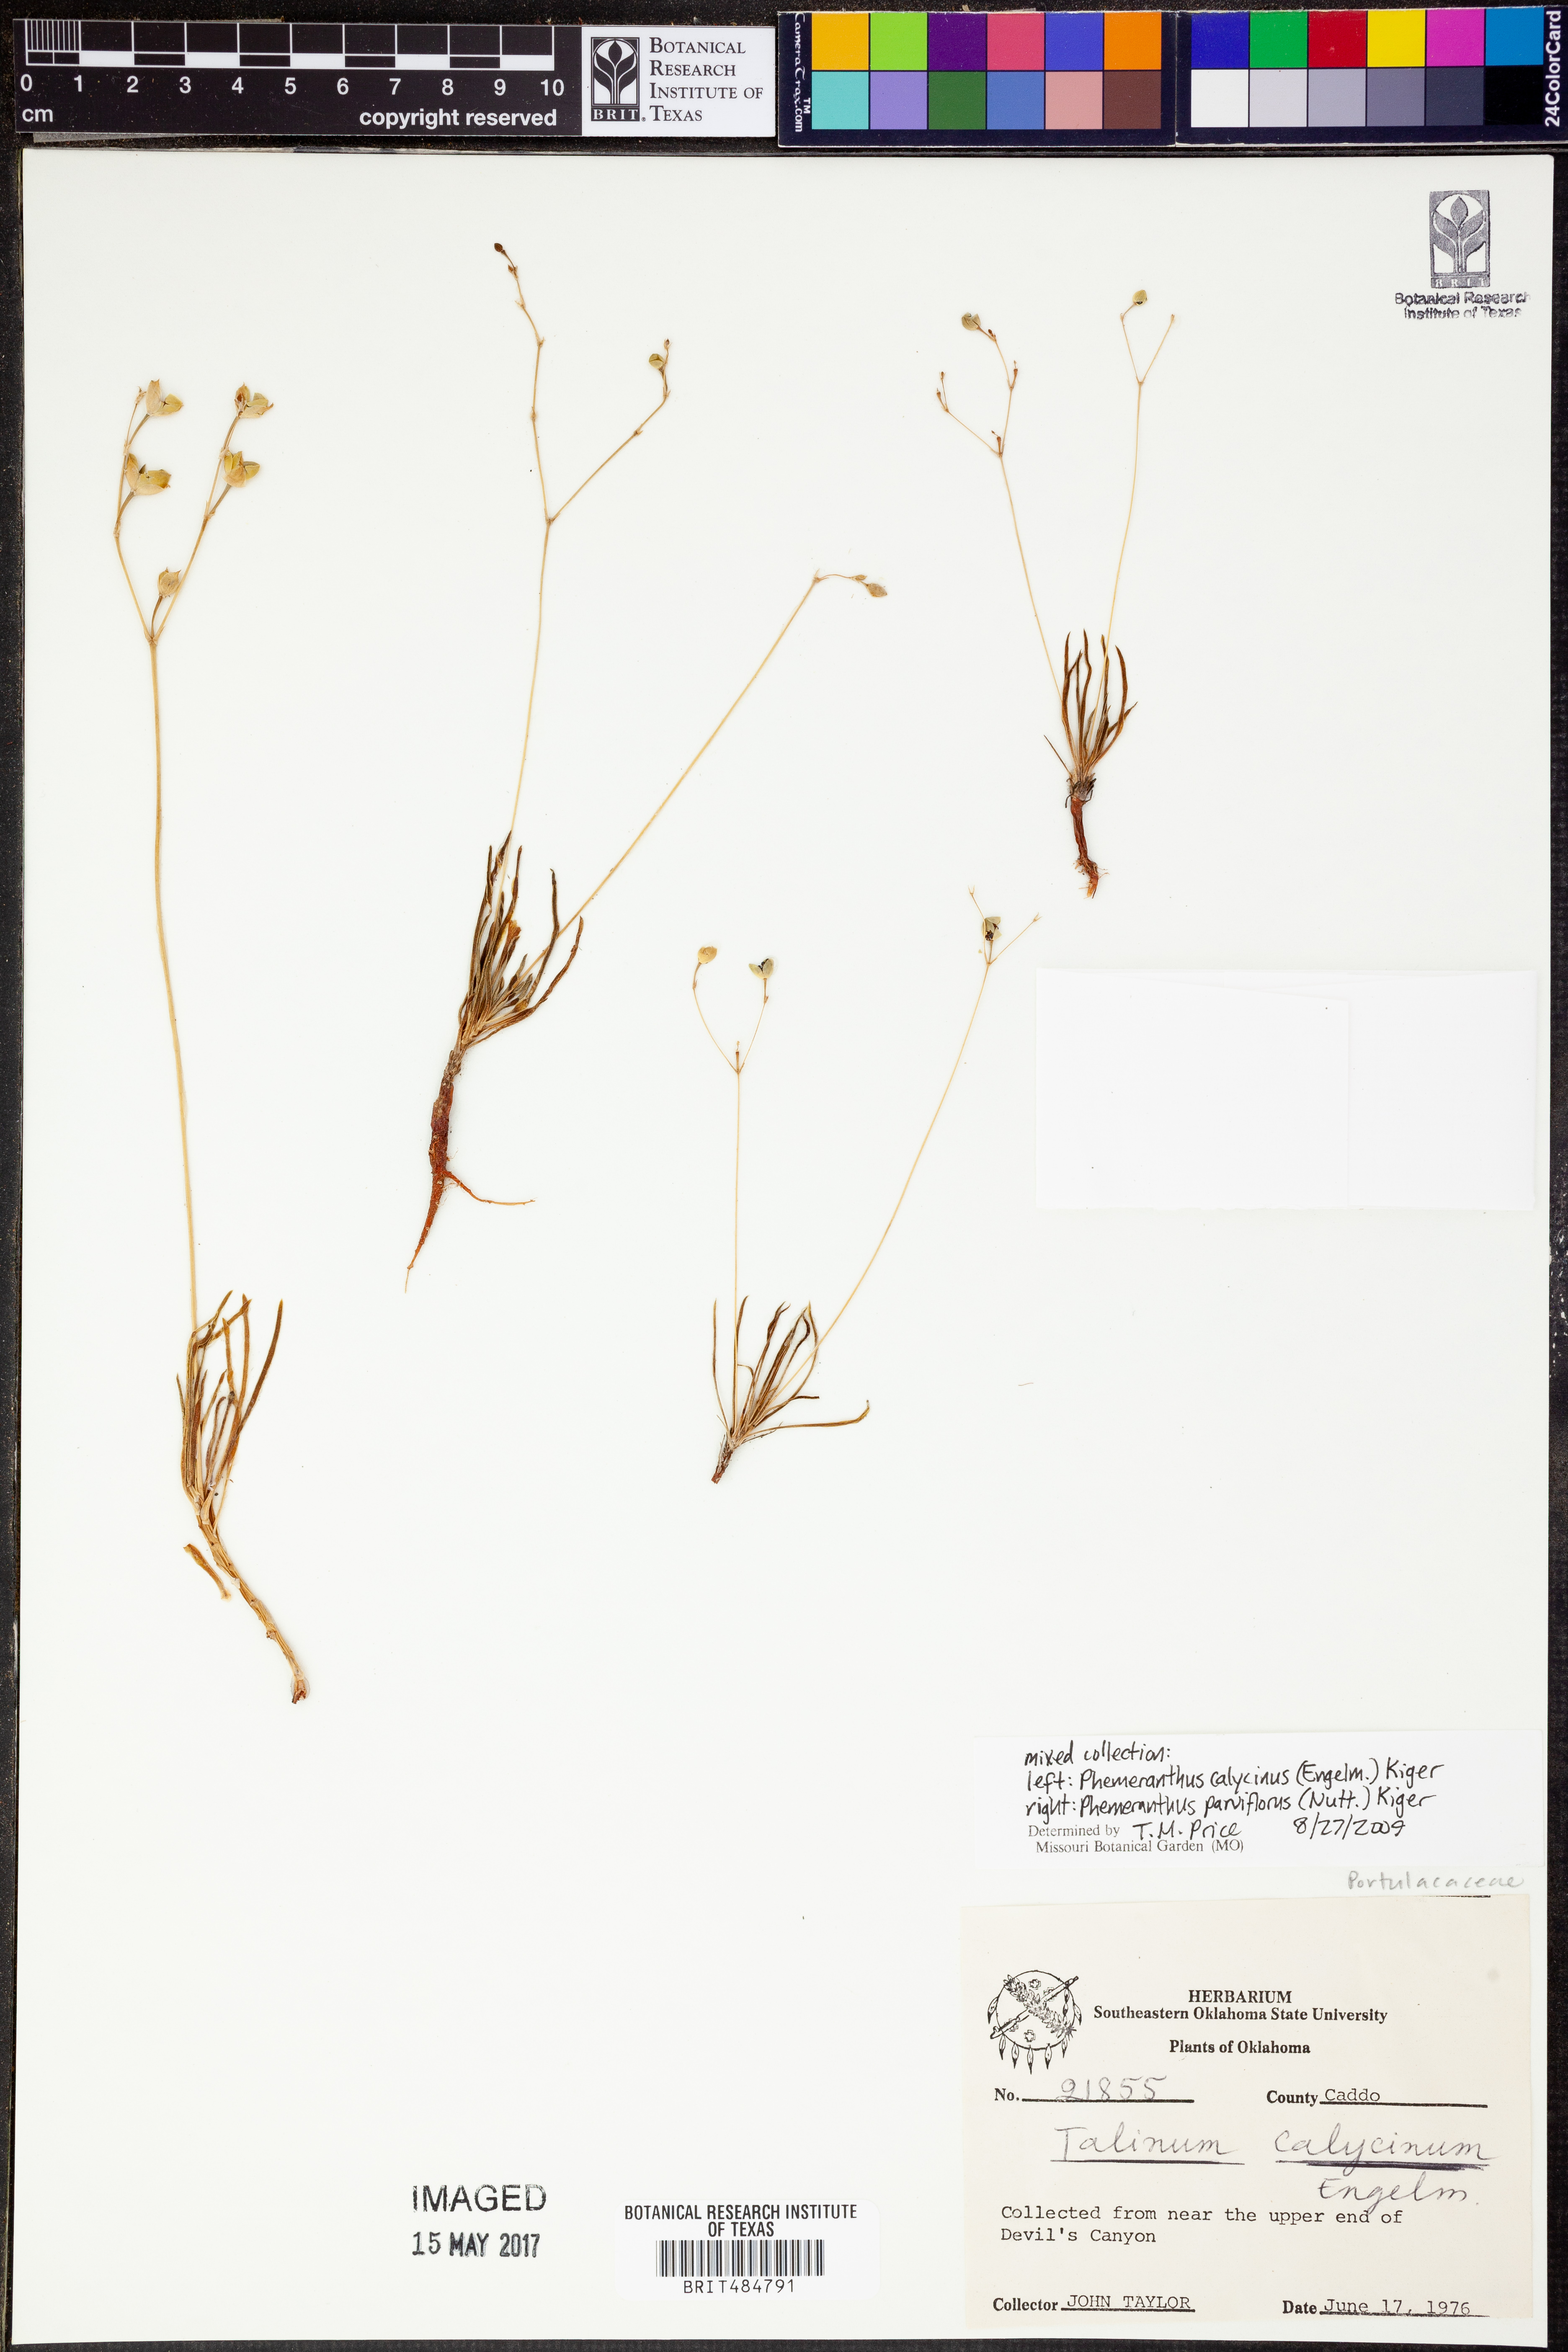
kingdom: Plantae
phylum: Tracheophyta
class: Magnoliopsida
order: Caryophyllales
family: Montiaceae
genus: Phemeranthus
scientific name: Phemeranthus calycinus
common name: Largeflower fameflower
